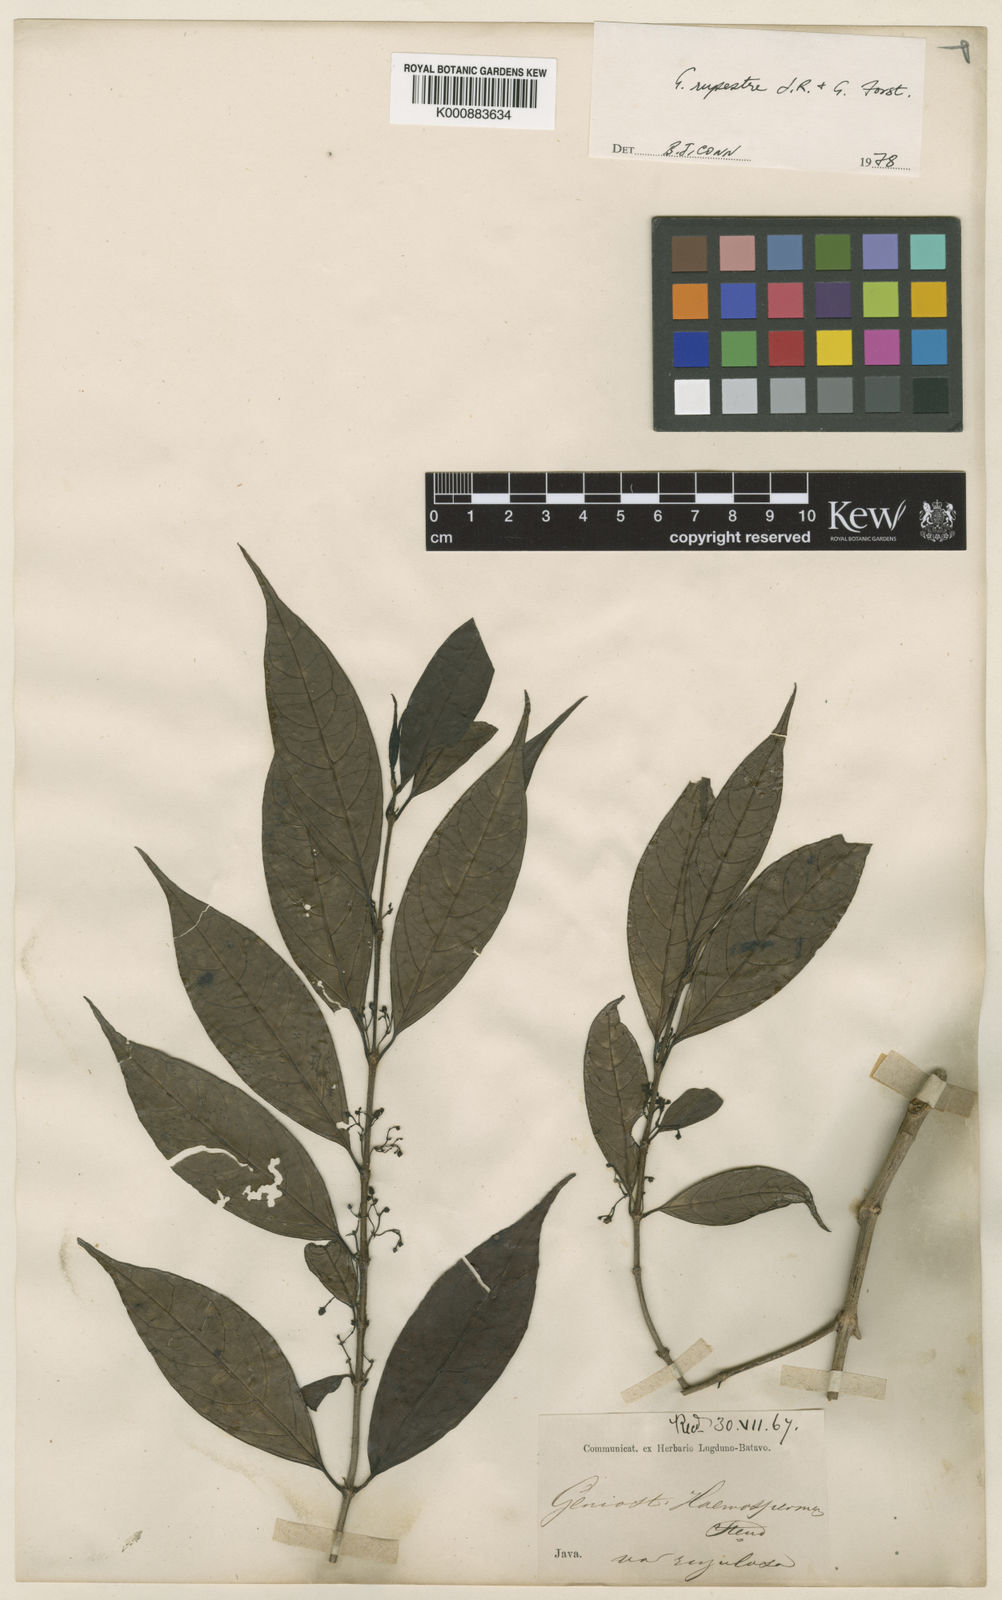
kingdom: Plantae
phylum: Tracheophyta
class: Magnoliopsida
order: Gentianales
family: Loganiaceae
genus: Geniostoma
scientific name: Geniostoma rupestre
